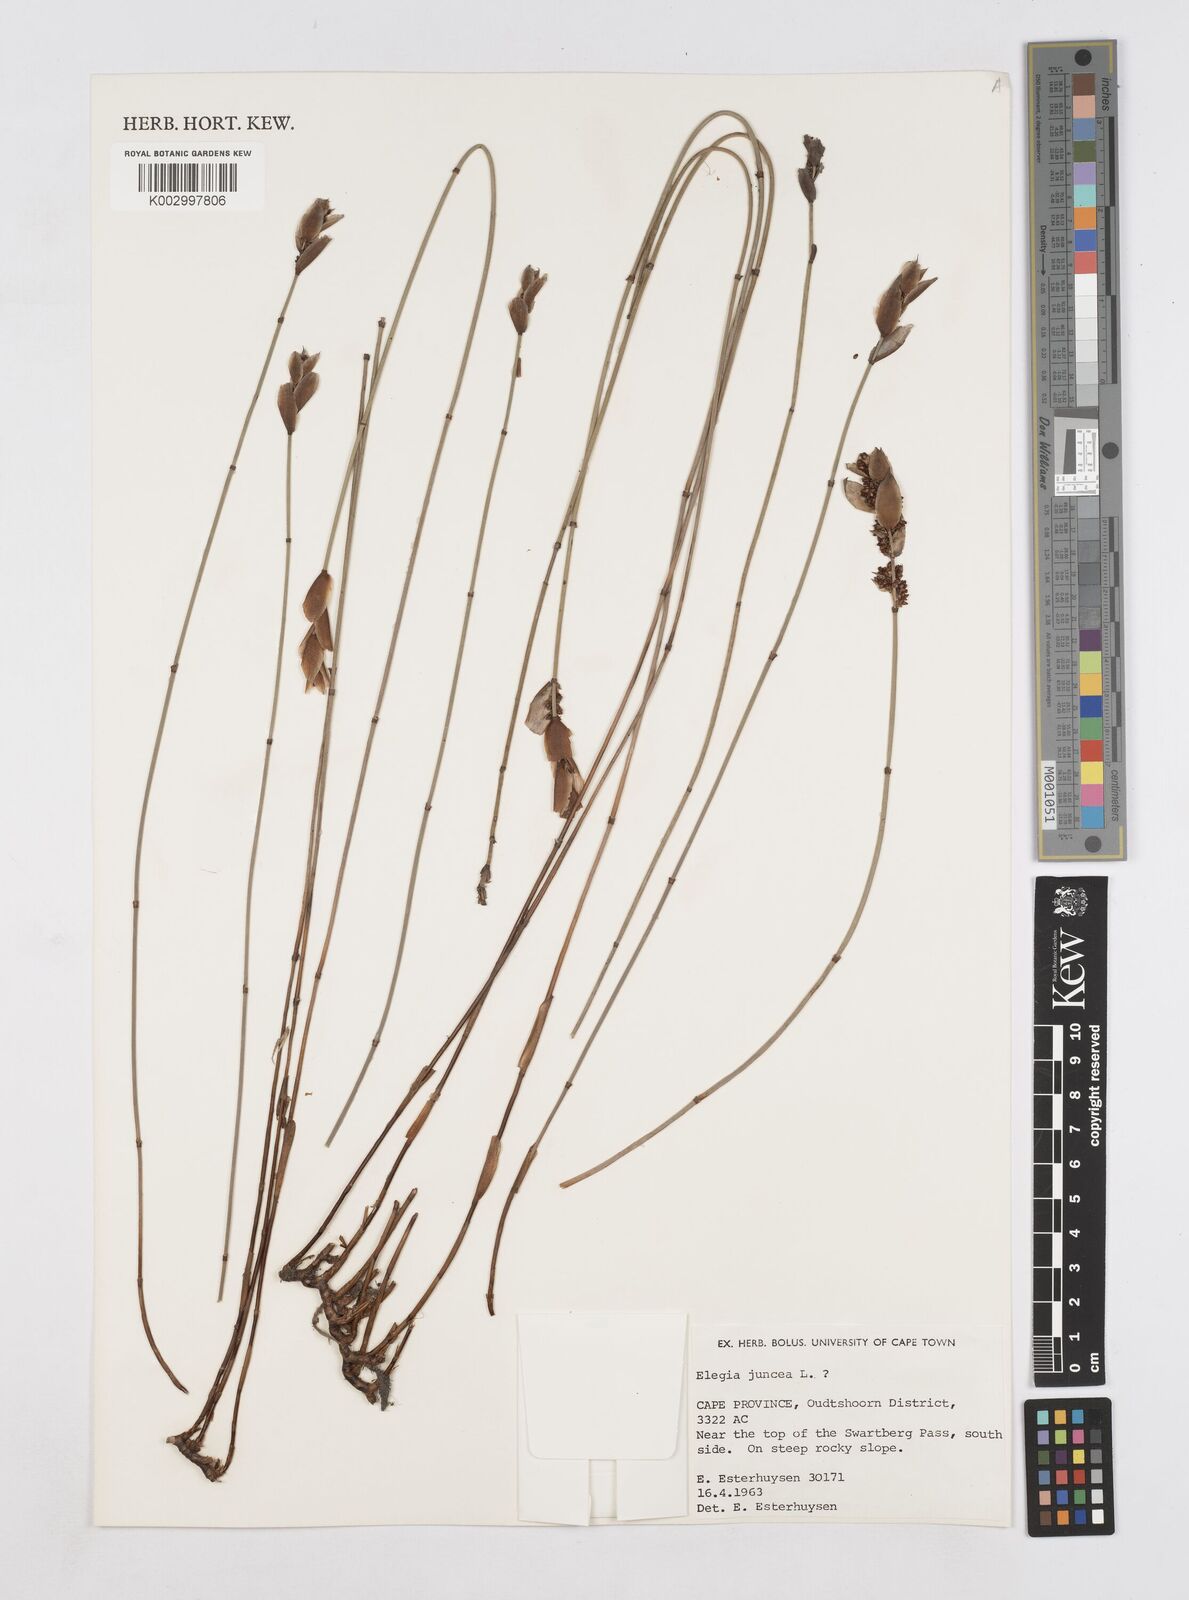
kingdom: Plantae
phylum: Tracheophyta
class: Liliopsida
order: Poales
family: Restionaceae
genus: Elegia
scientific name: Elegia juncea
